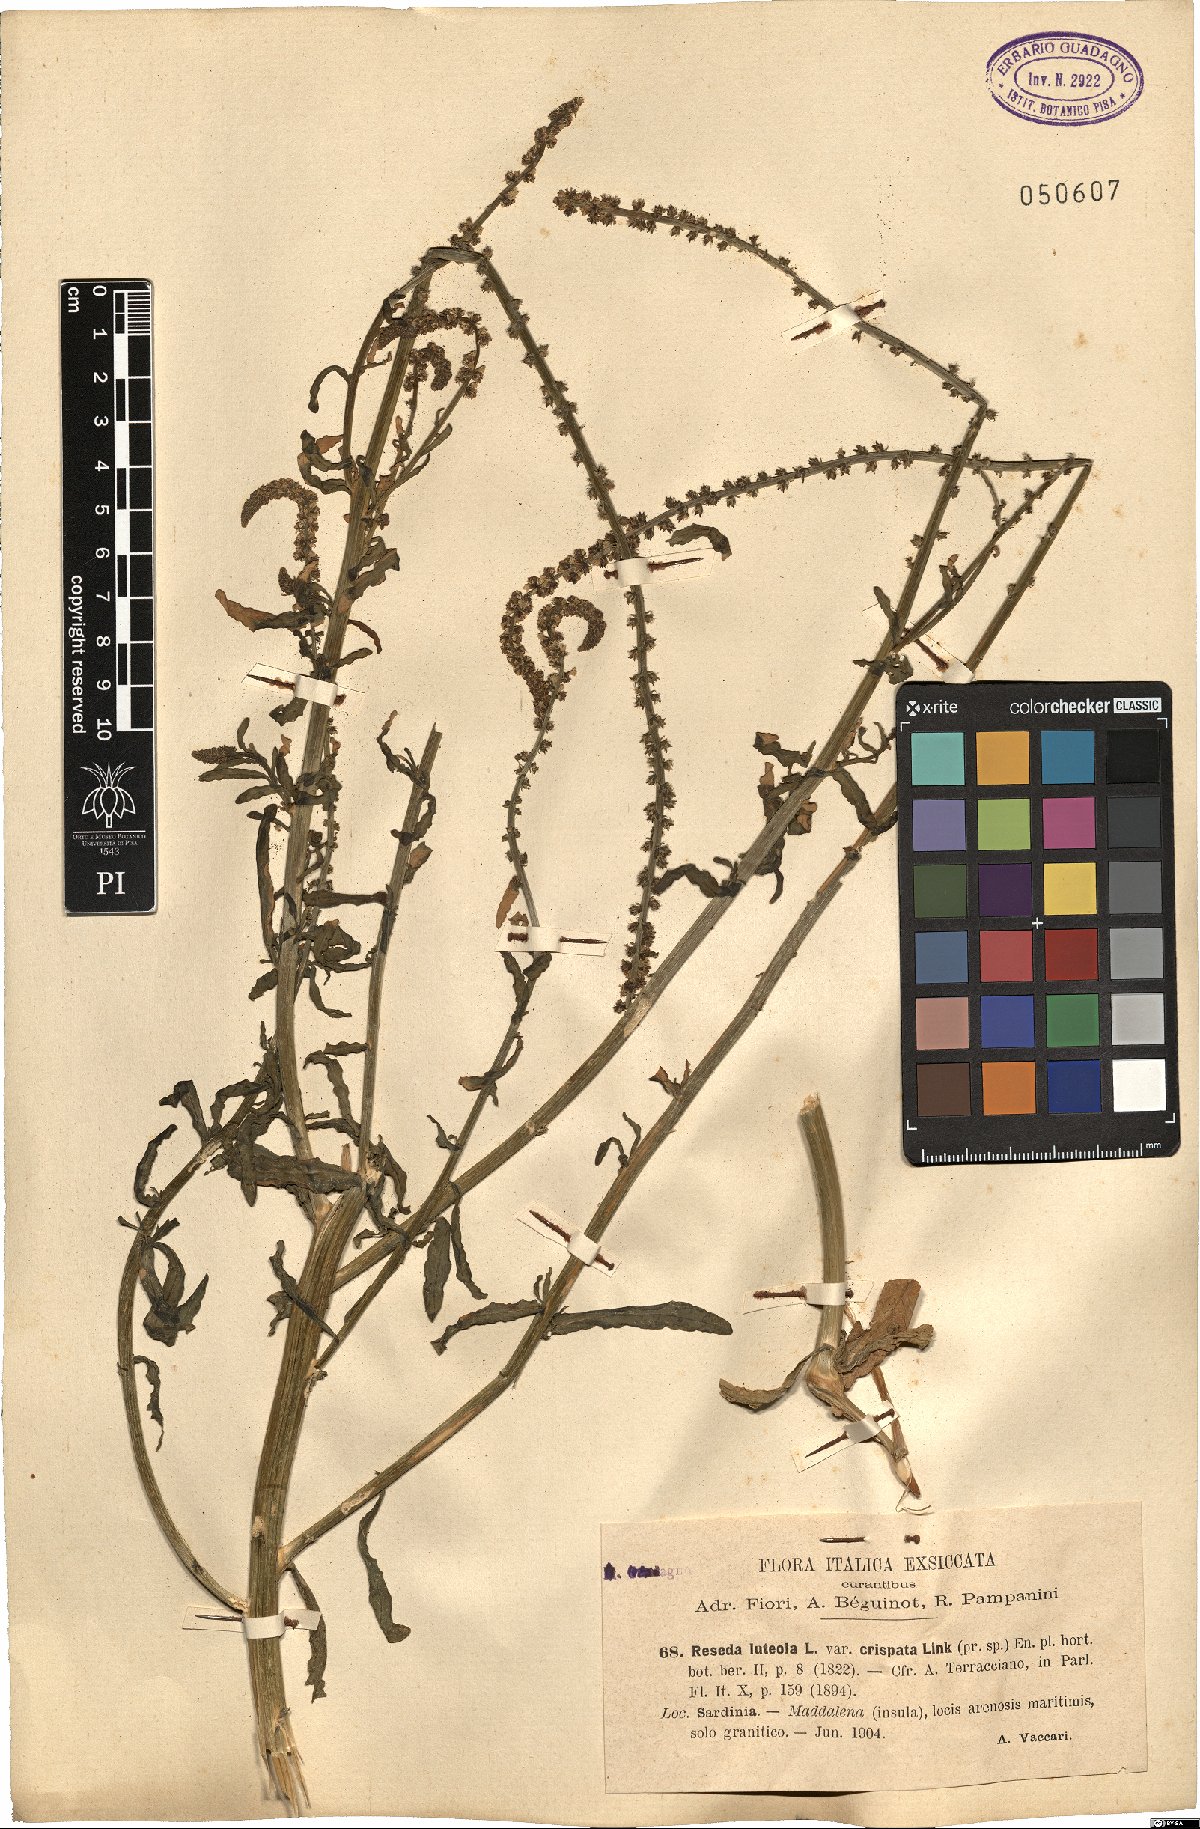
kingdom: Plantae
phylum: Tracheophyta
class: Magnoliopsida
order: Brassicales
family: Resedaceae
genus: Reseda
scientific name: Reseda luteola
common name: Weld
